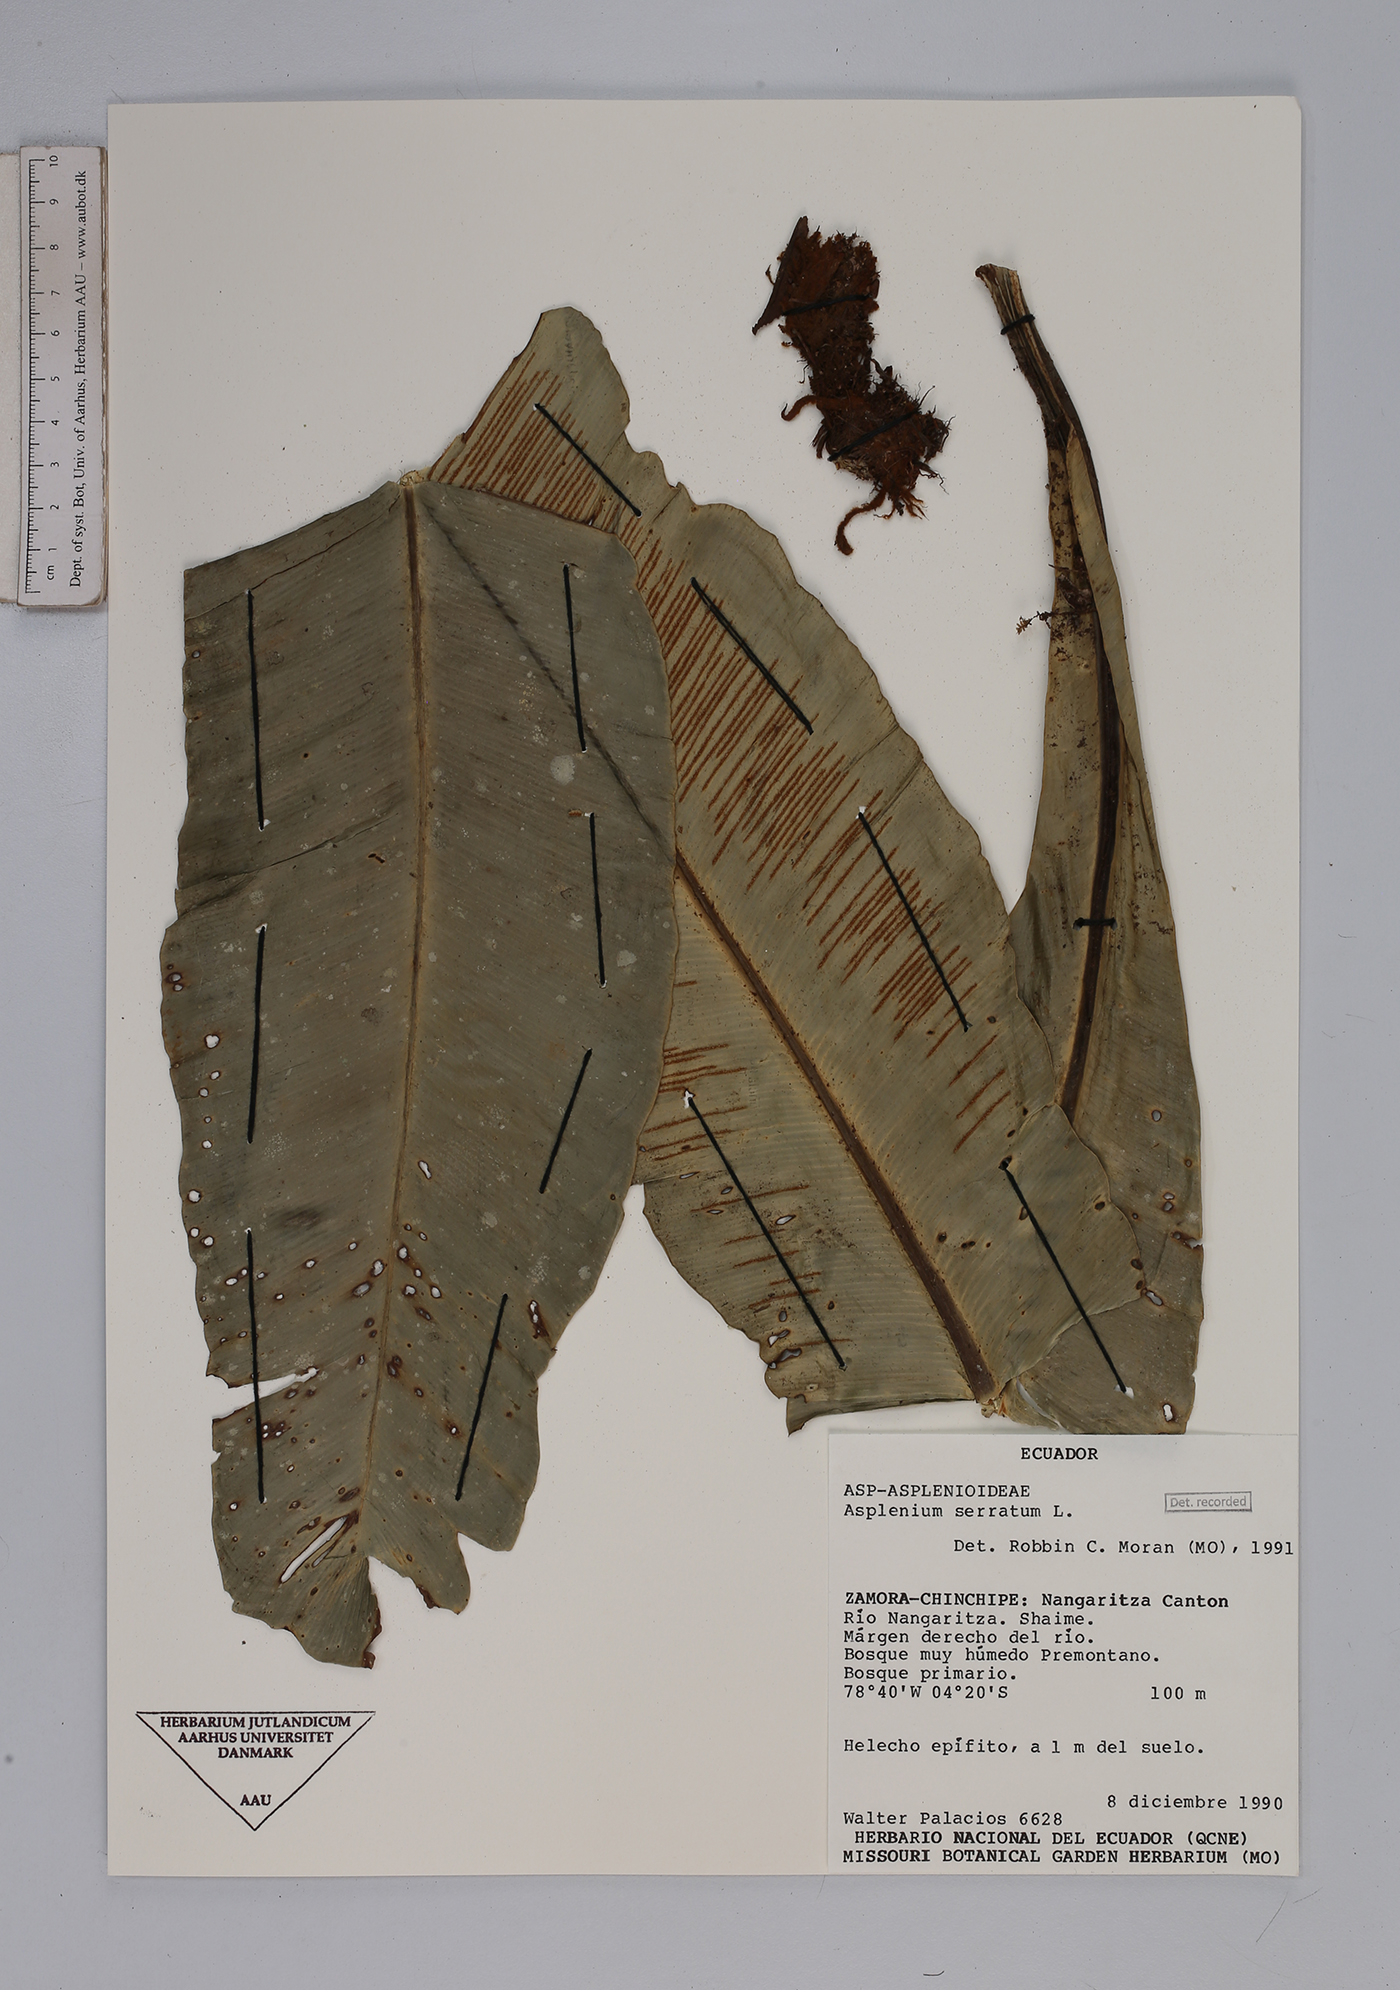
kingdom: Plantae
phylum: Tracheophyta
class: Polypodiopsida
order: Polypodiales
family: Aspleniaceae
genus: Asplenium
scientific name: Asplenium serratum
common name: Wild birdnest fern
